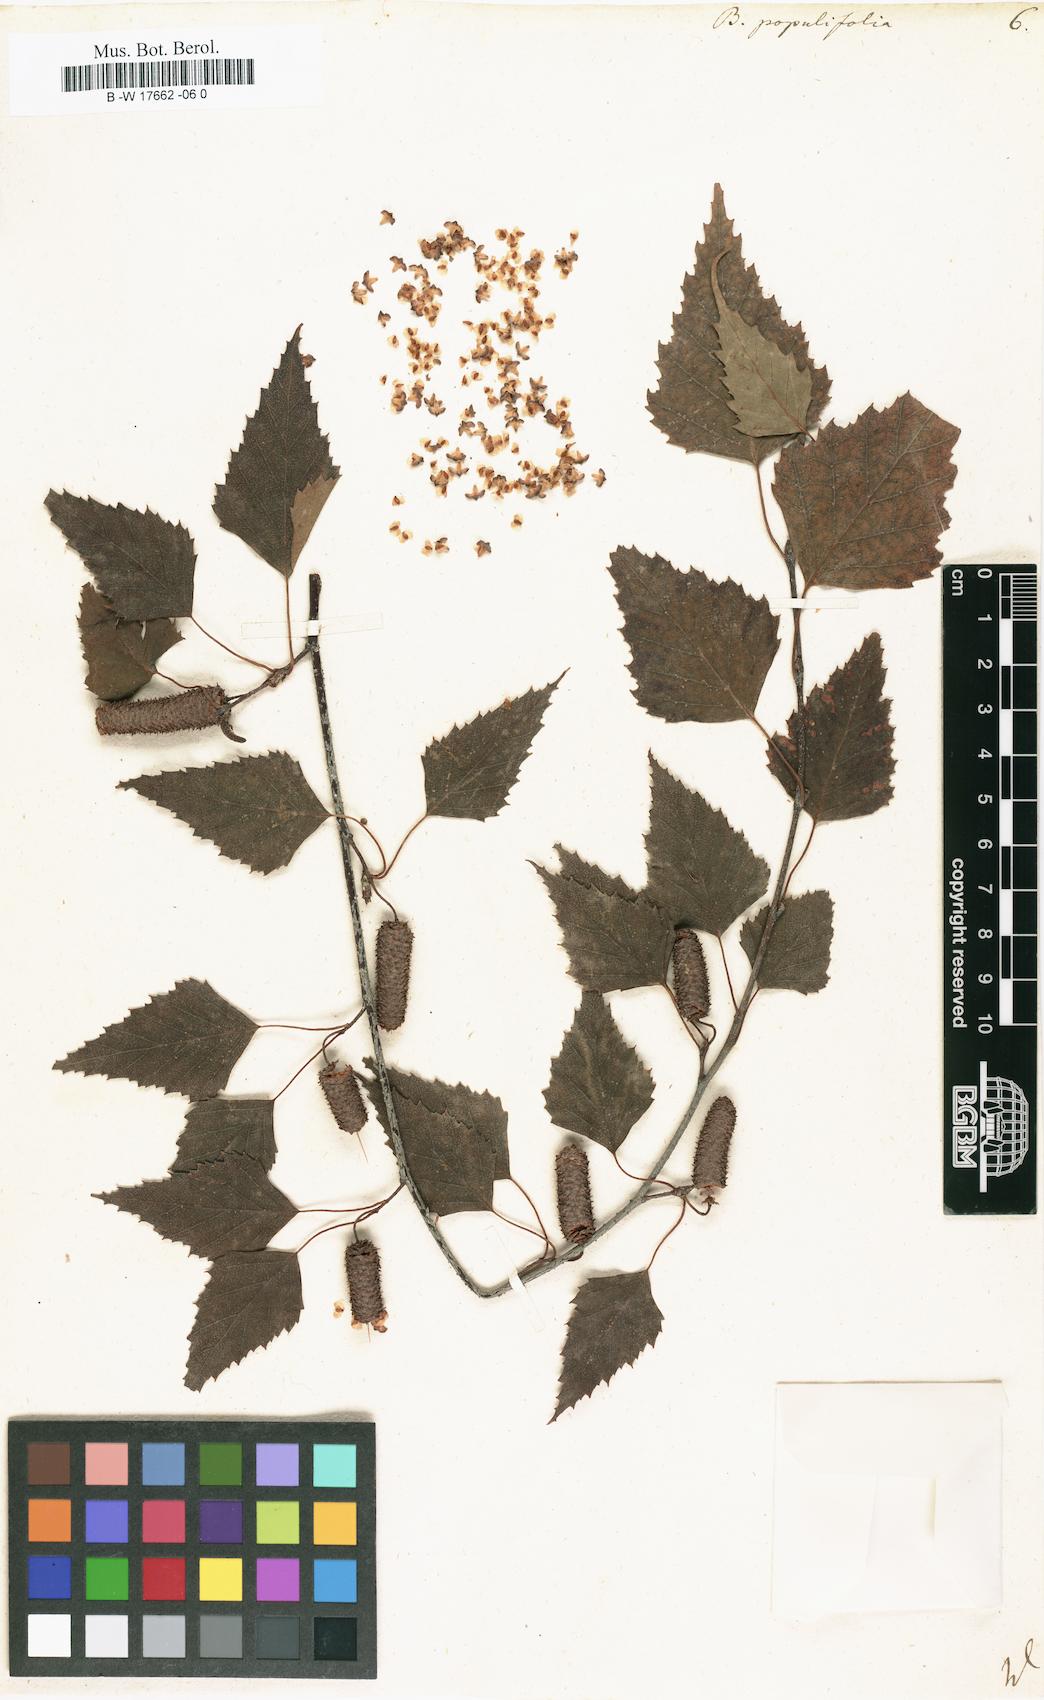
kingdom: Plantae
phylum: Tracheophyta
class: Magnoliopsida
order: Fagales
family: Betulaceae
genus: Betula
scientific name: Betula pubescens
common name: Downy birch
